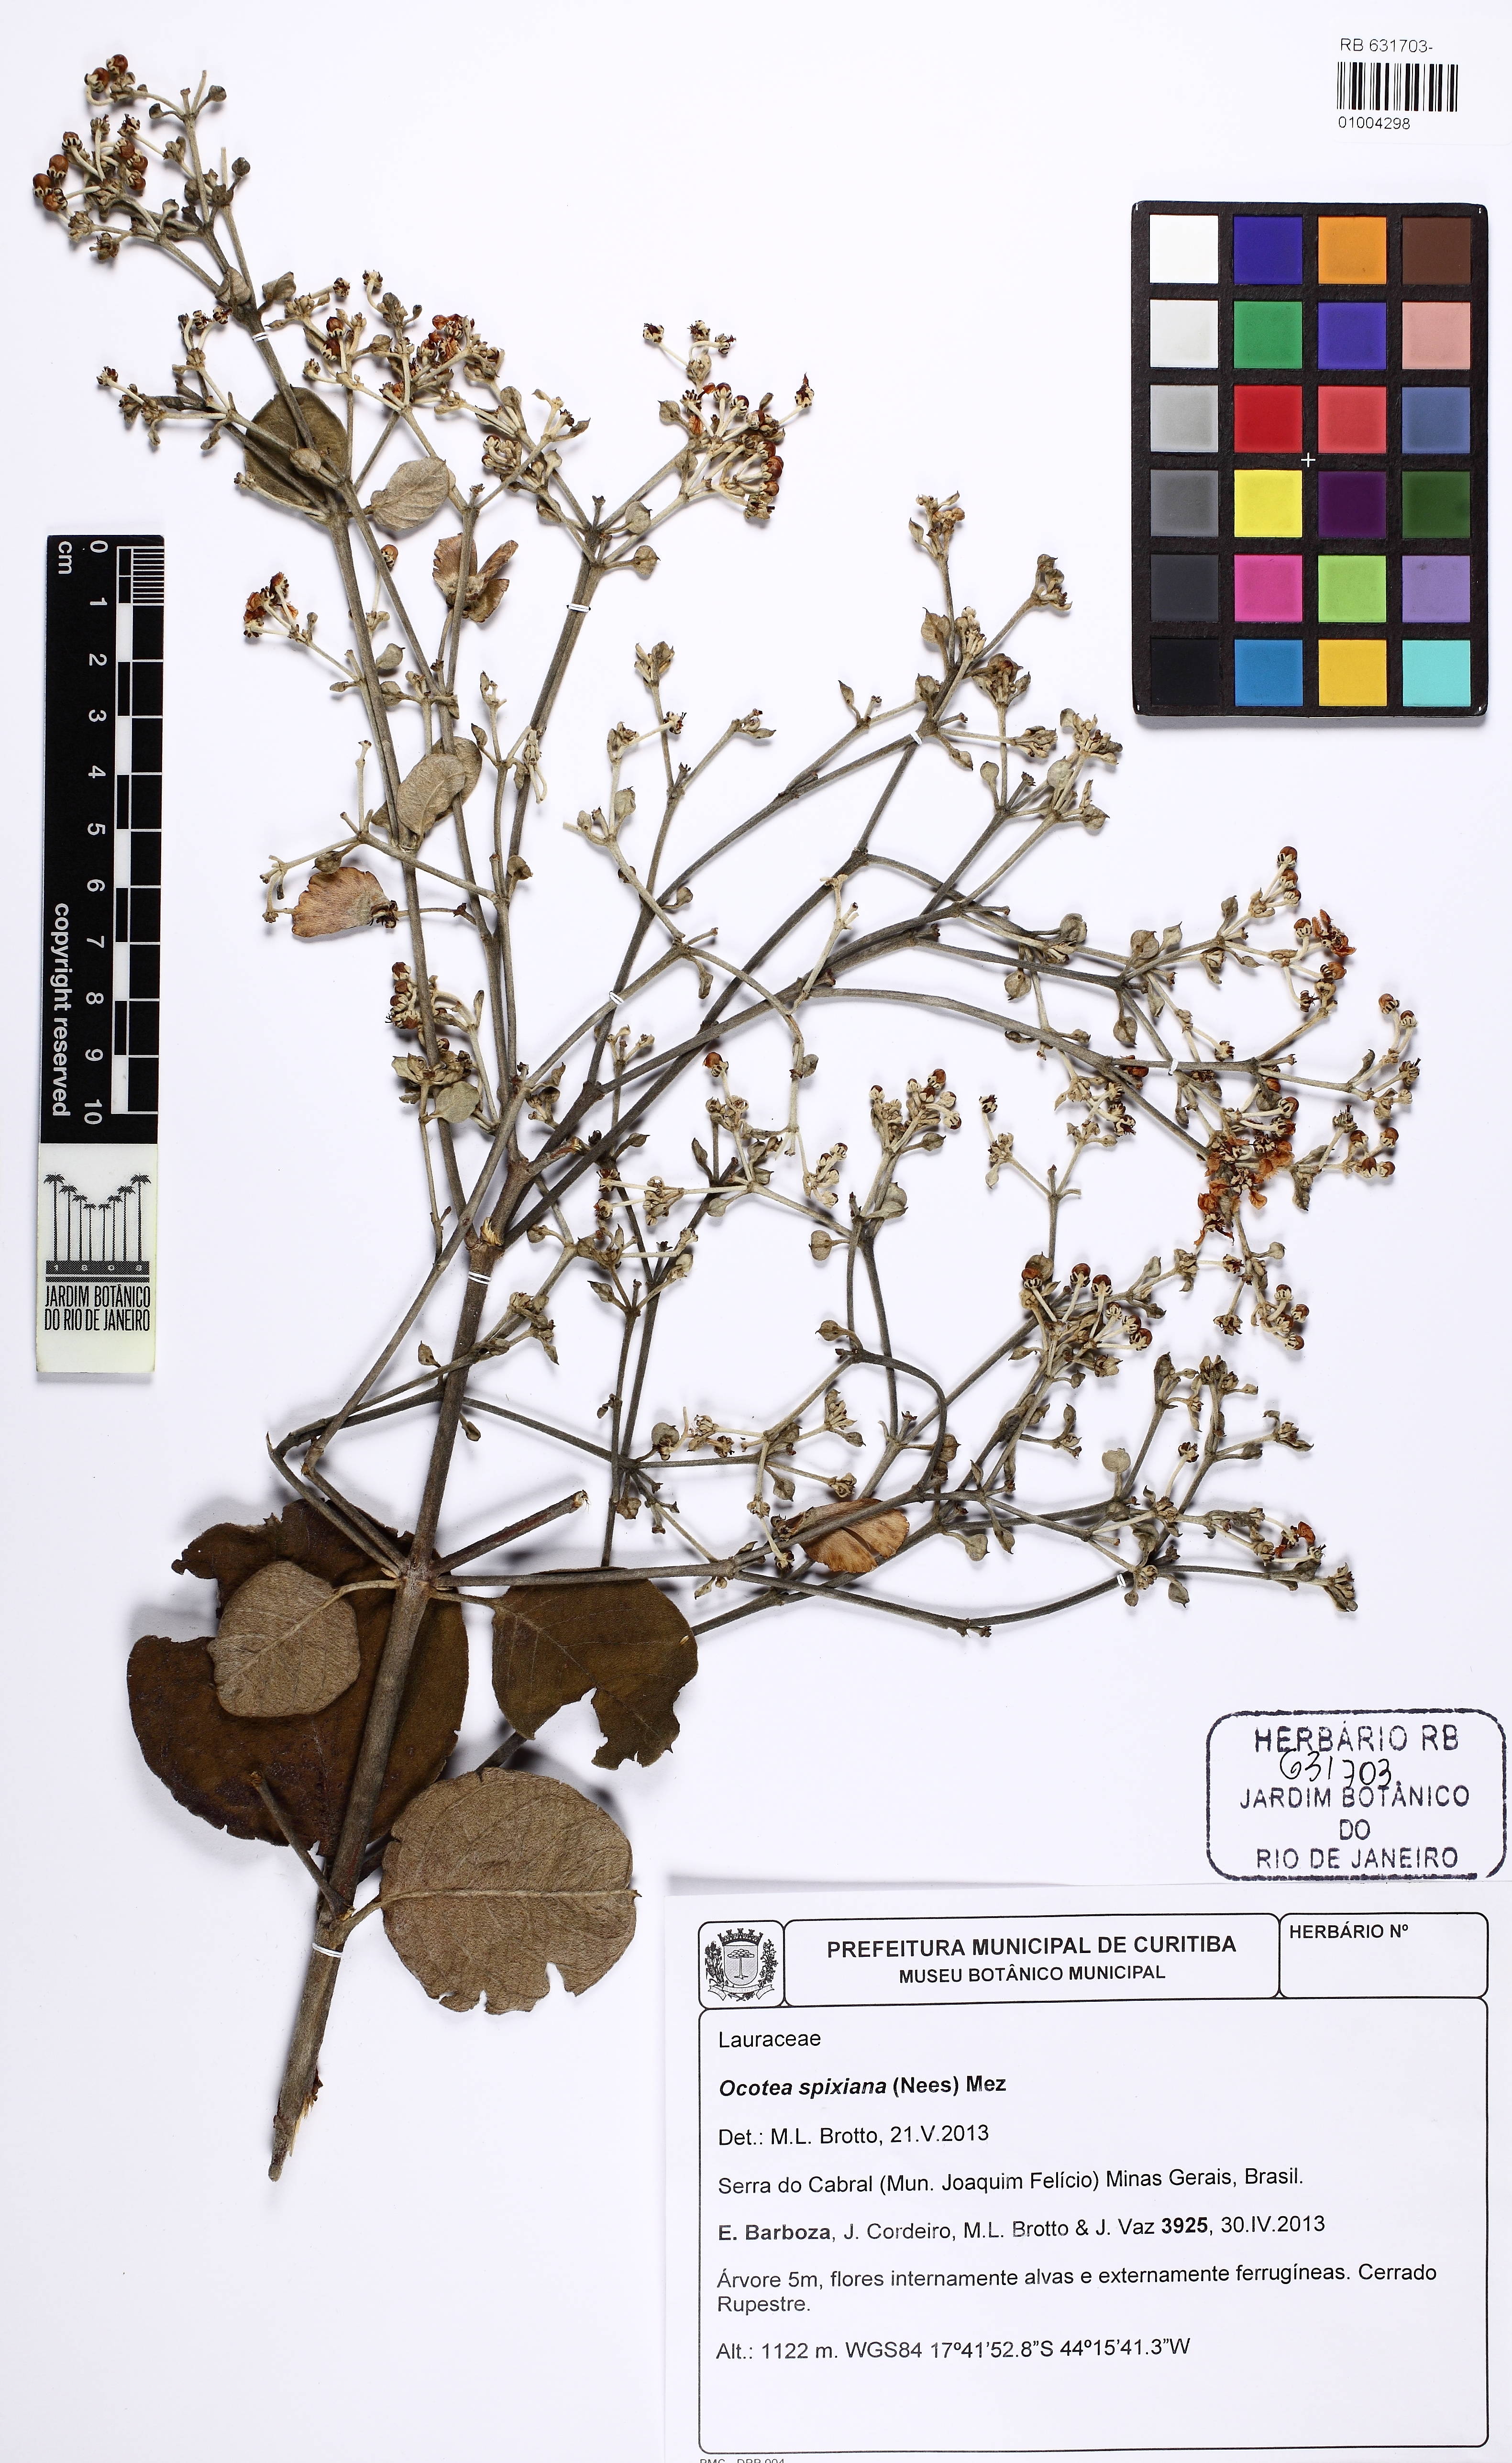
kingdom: Plantae
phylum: Tracheophyta
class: Magnoliopsida
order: Laurales
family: Lauraceae
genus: Ocotea
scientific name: Ocotea spixiana
